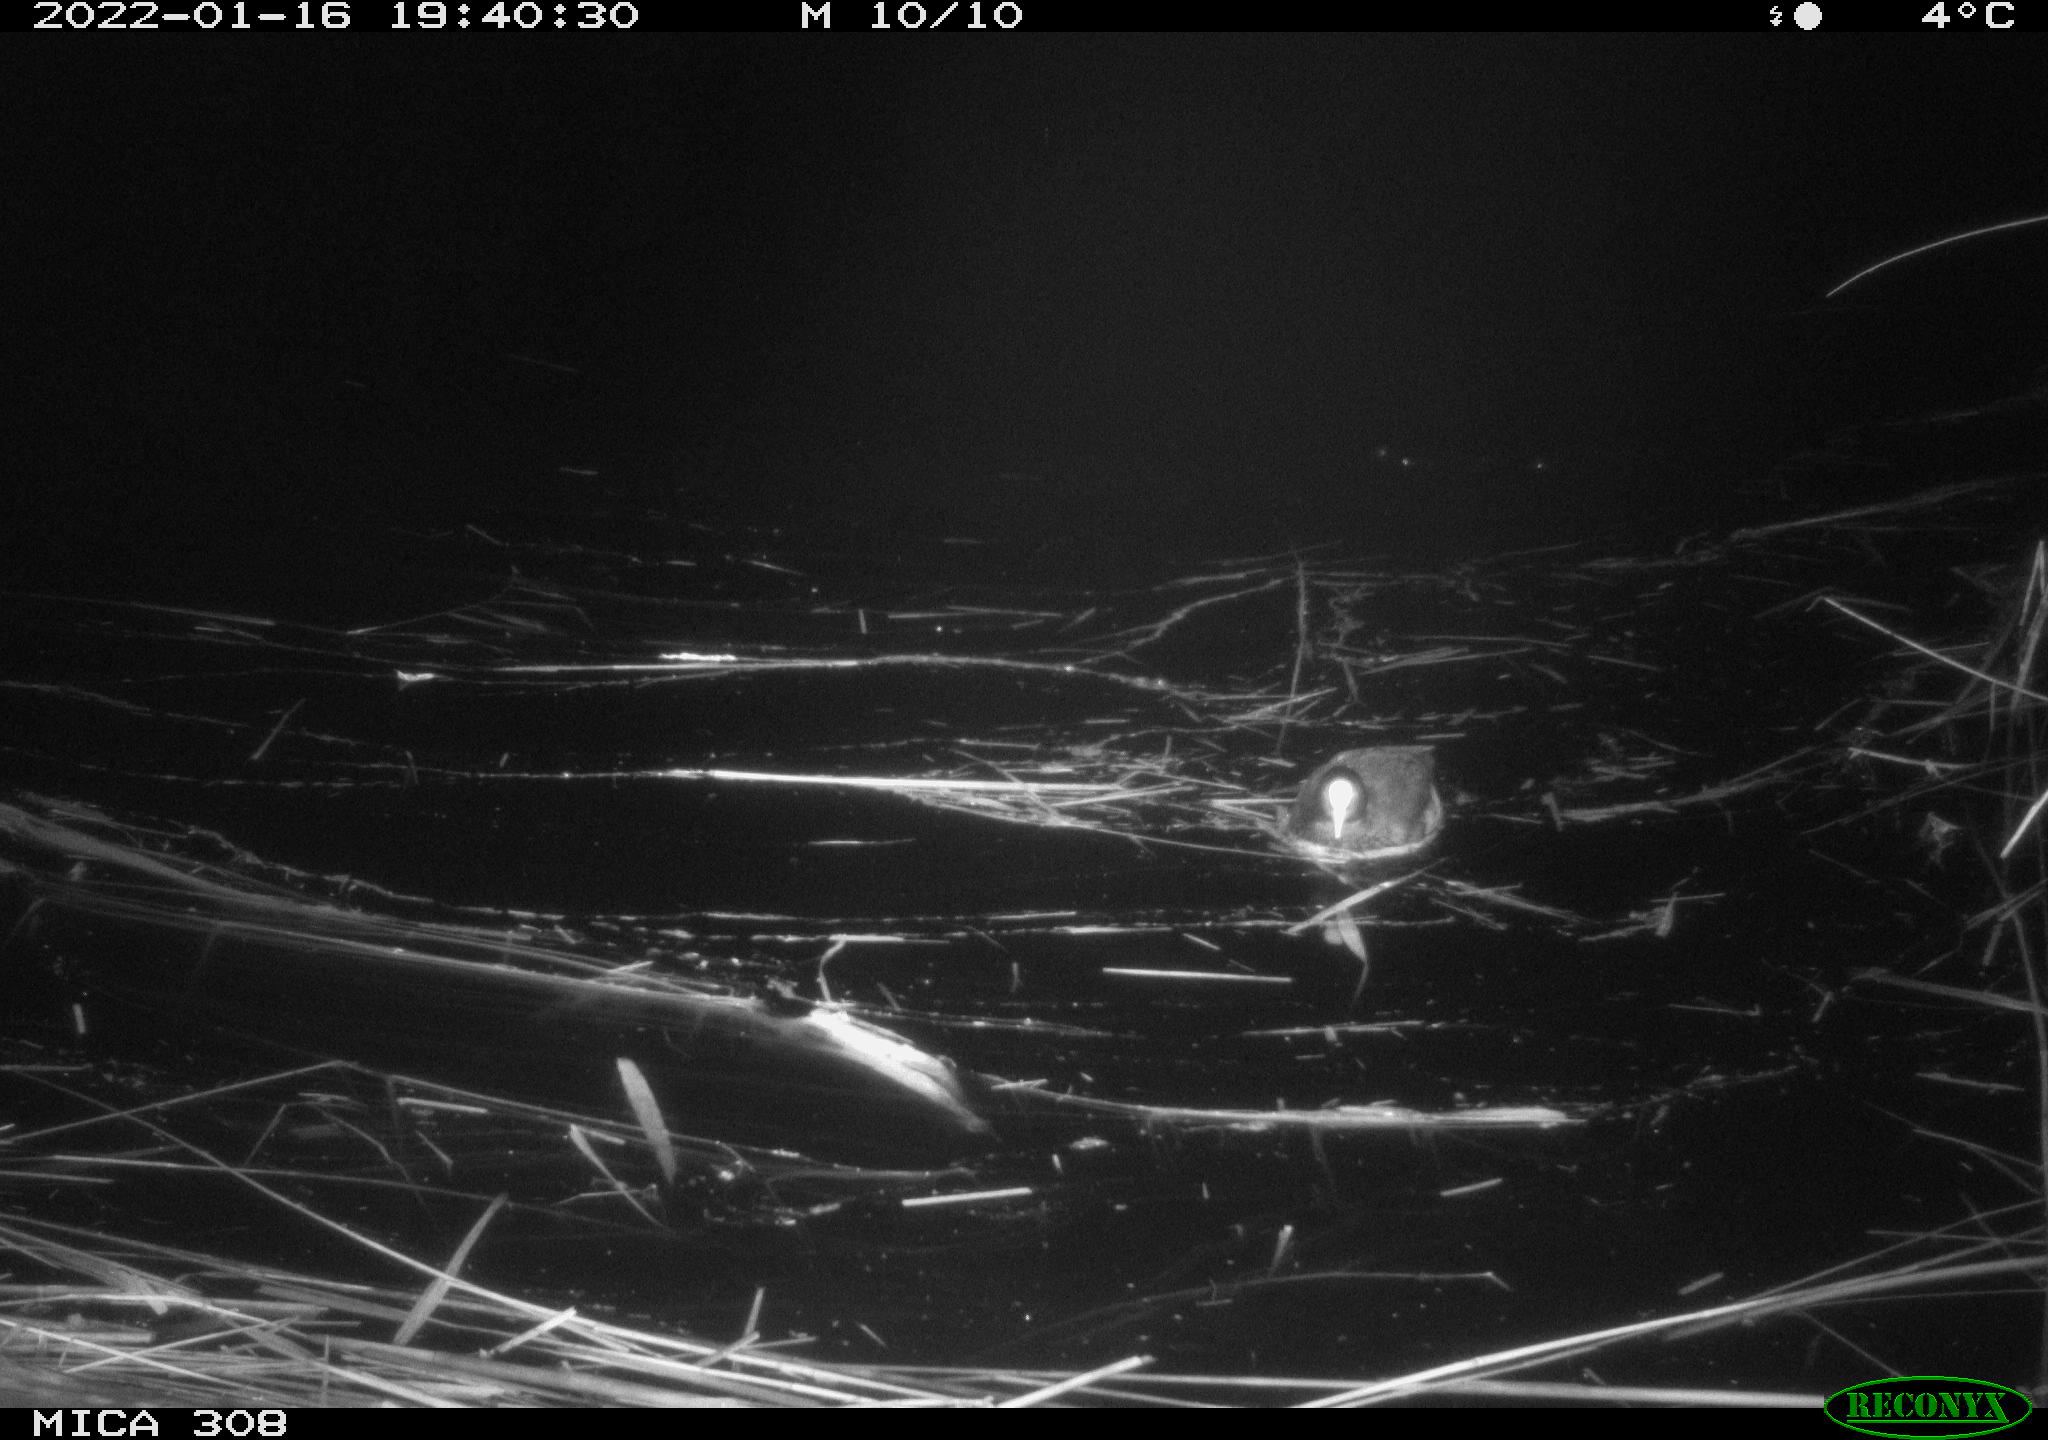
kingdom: Animalia
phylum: Chordata
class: Aves
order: Gruiformes
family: Rallidae
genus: Fulica
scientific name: Fulica atra
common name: Eurasian coot
